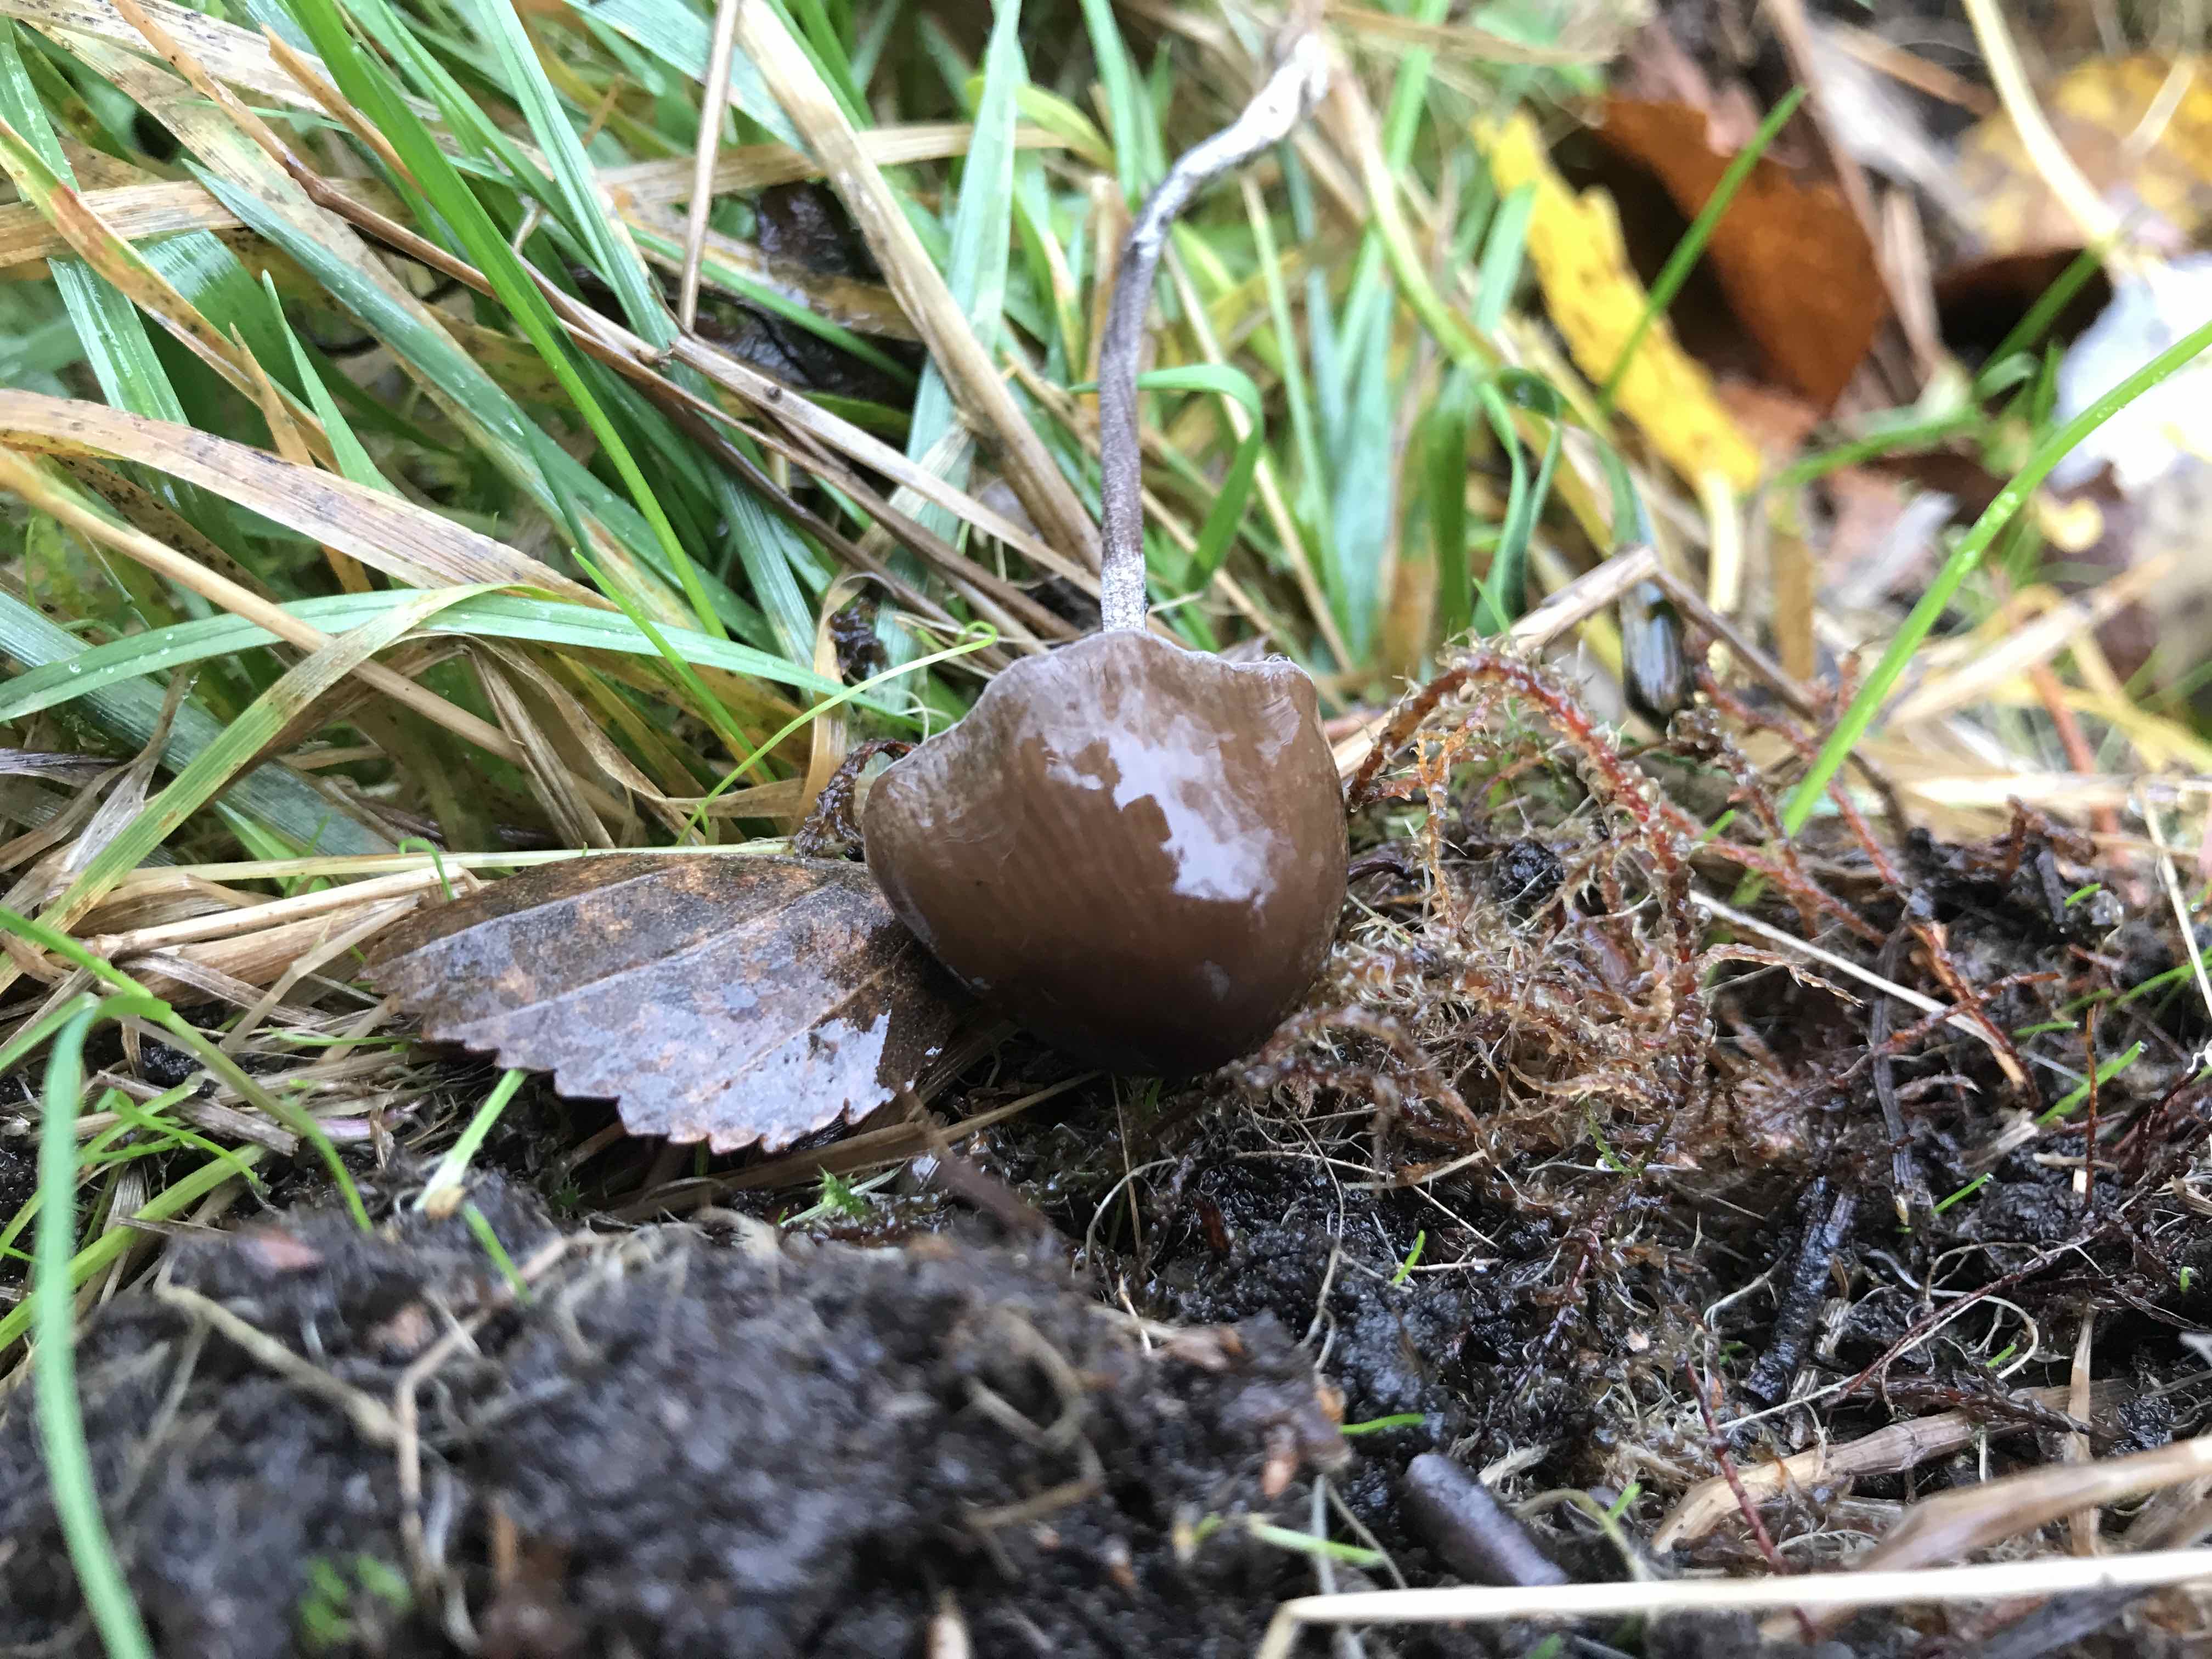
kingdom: Fungi
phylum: Basidiomycota
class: Agaricomycetes
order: Agaricales
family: Bolbitiaceae
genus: Panaeolus
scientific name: Panaeolus acuminatus
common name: høj glanshat
